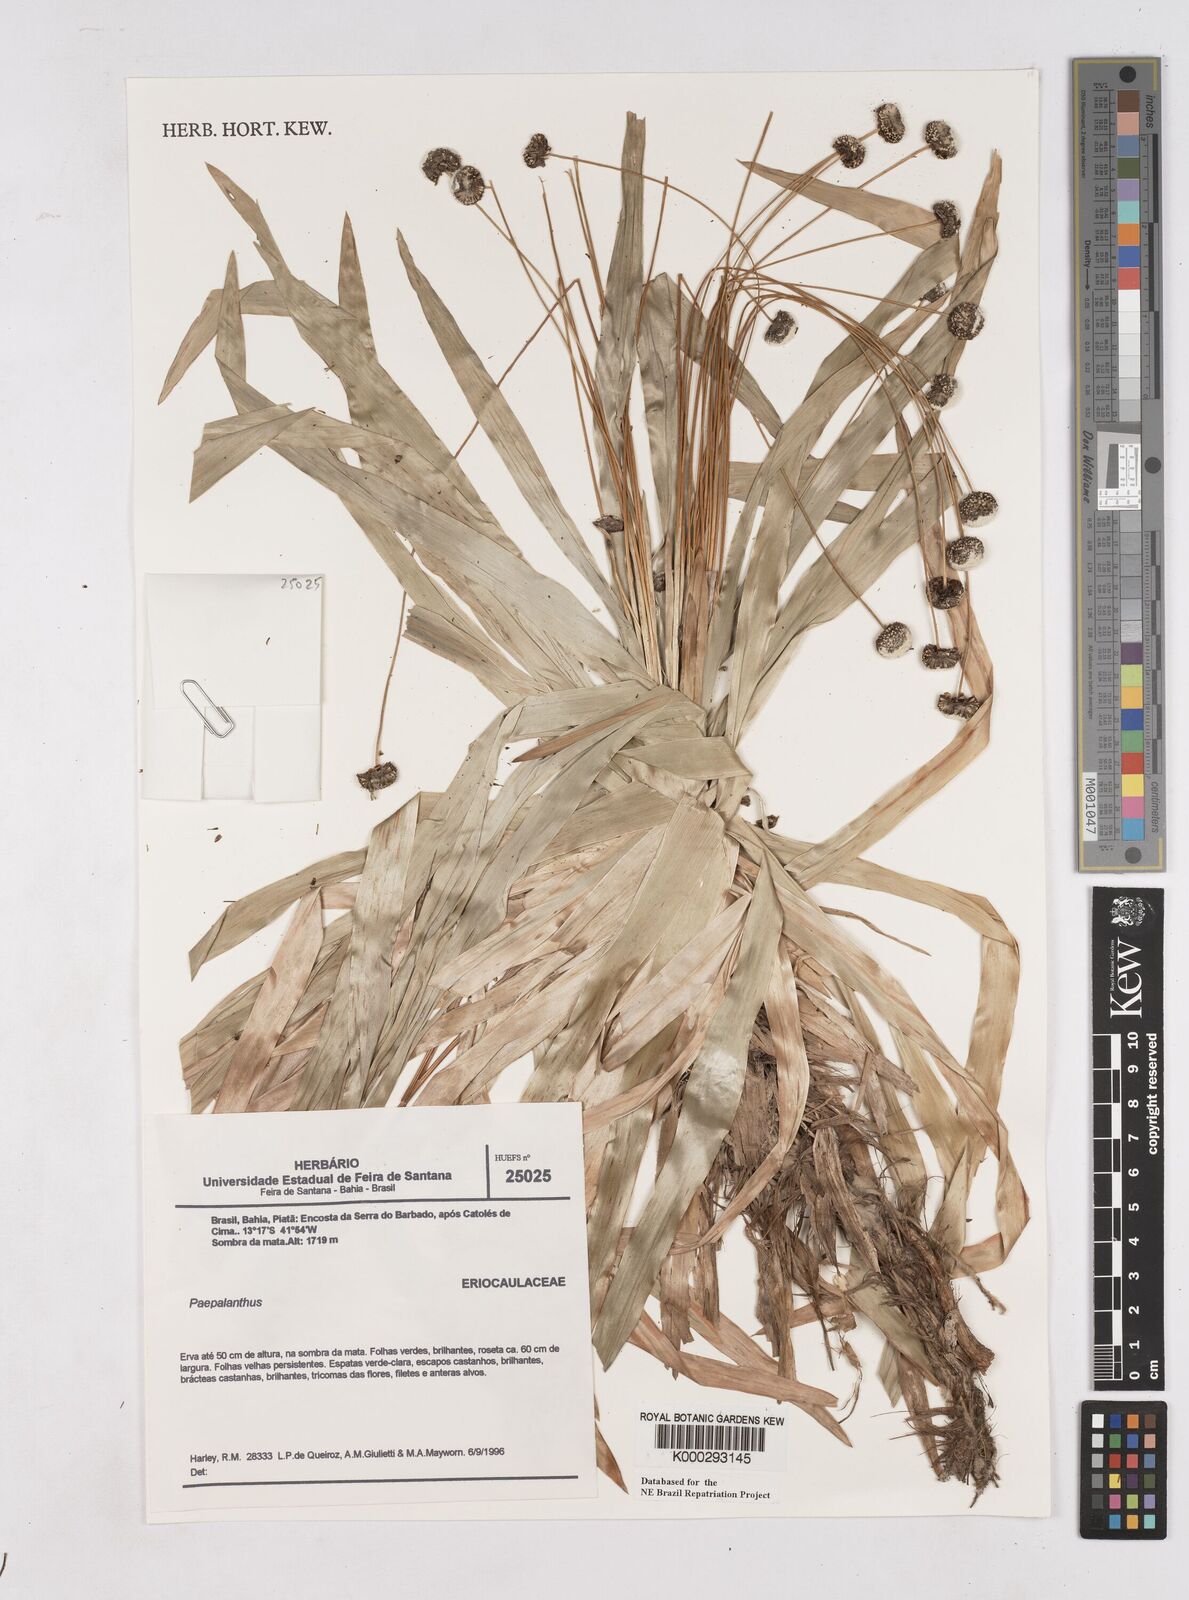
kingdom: Plantae
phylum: Tracheophyta
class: Liliopsida
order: Poales
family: Eriocaulaceae
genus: Paepalanthus
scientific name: Paepalanthus
